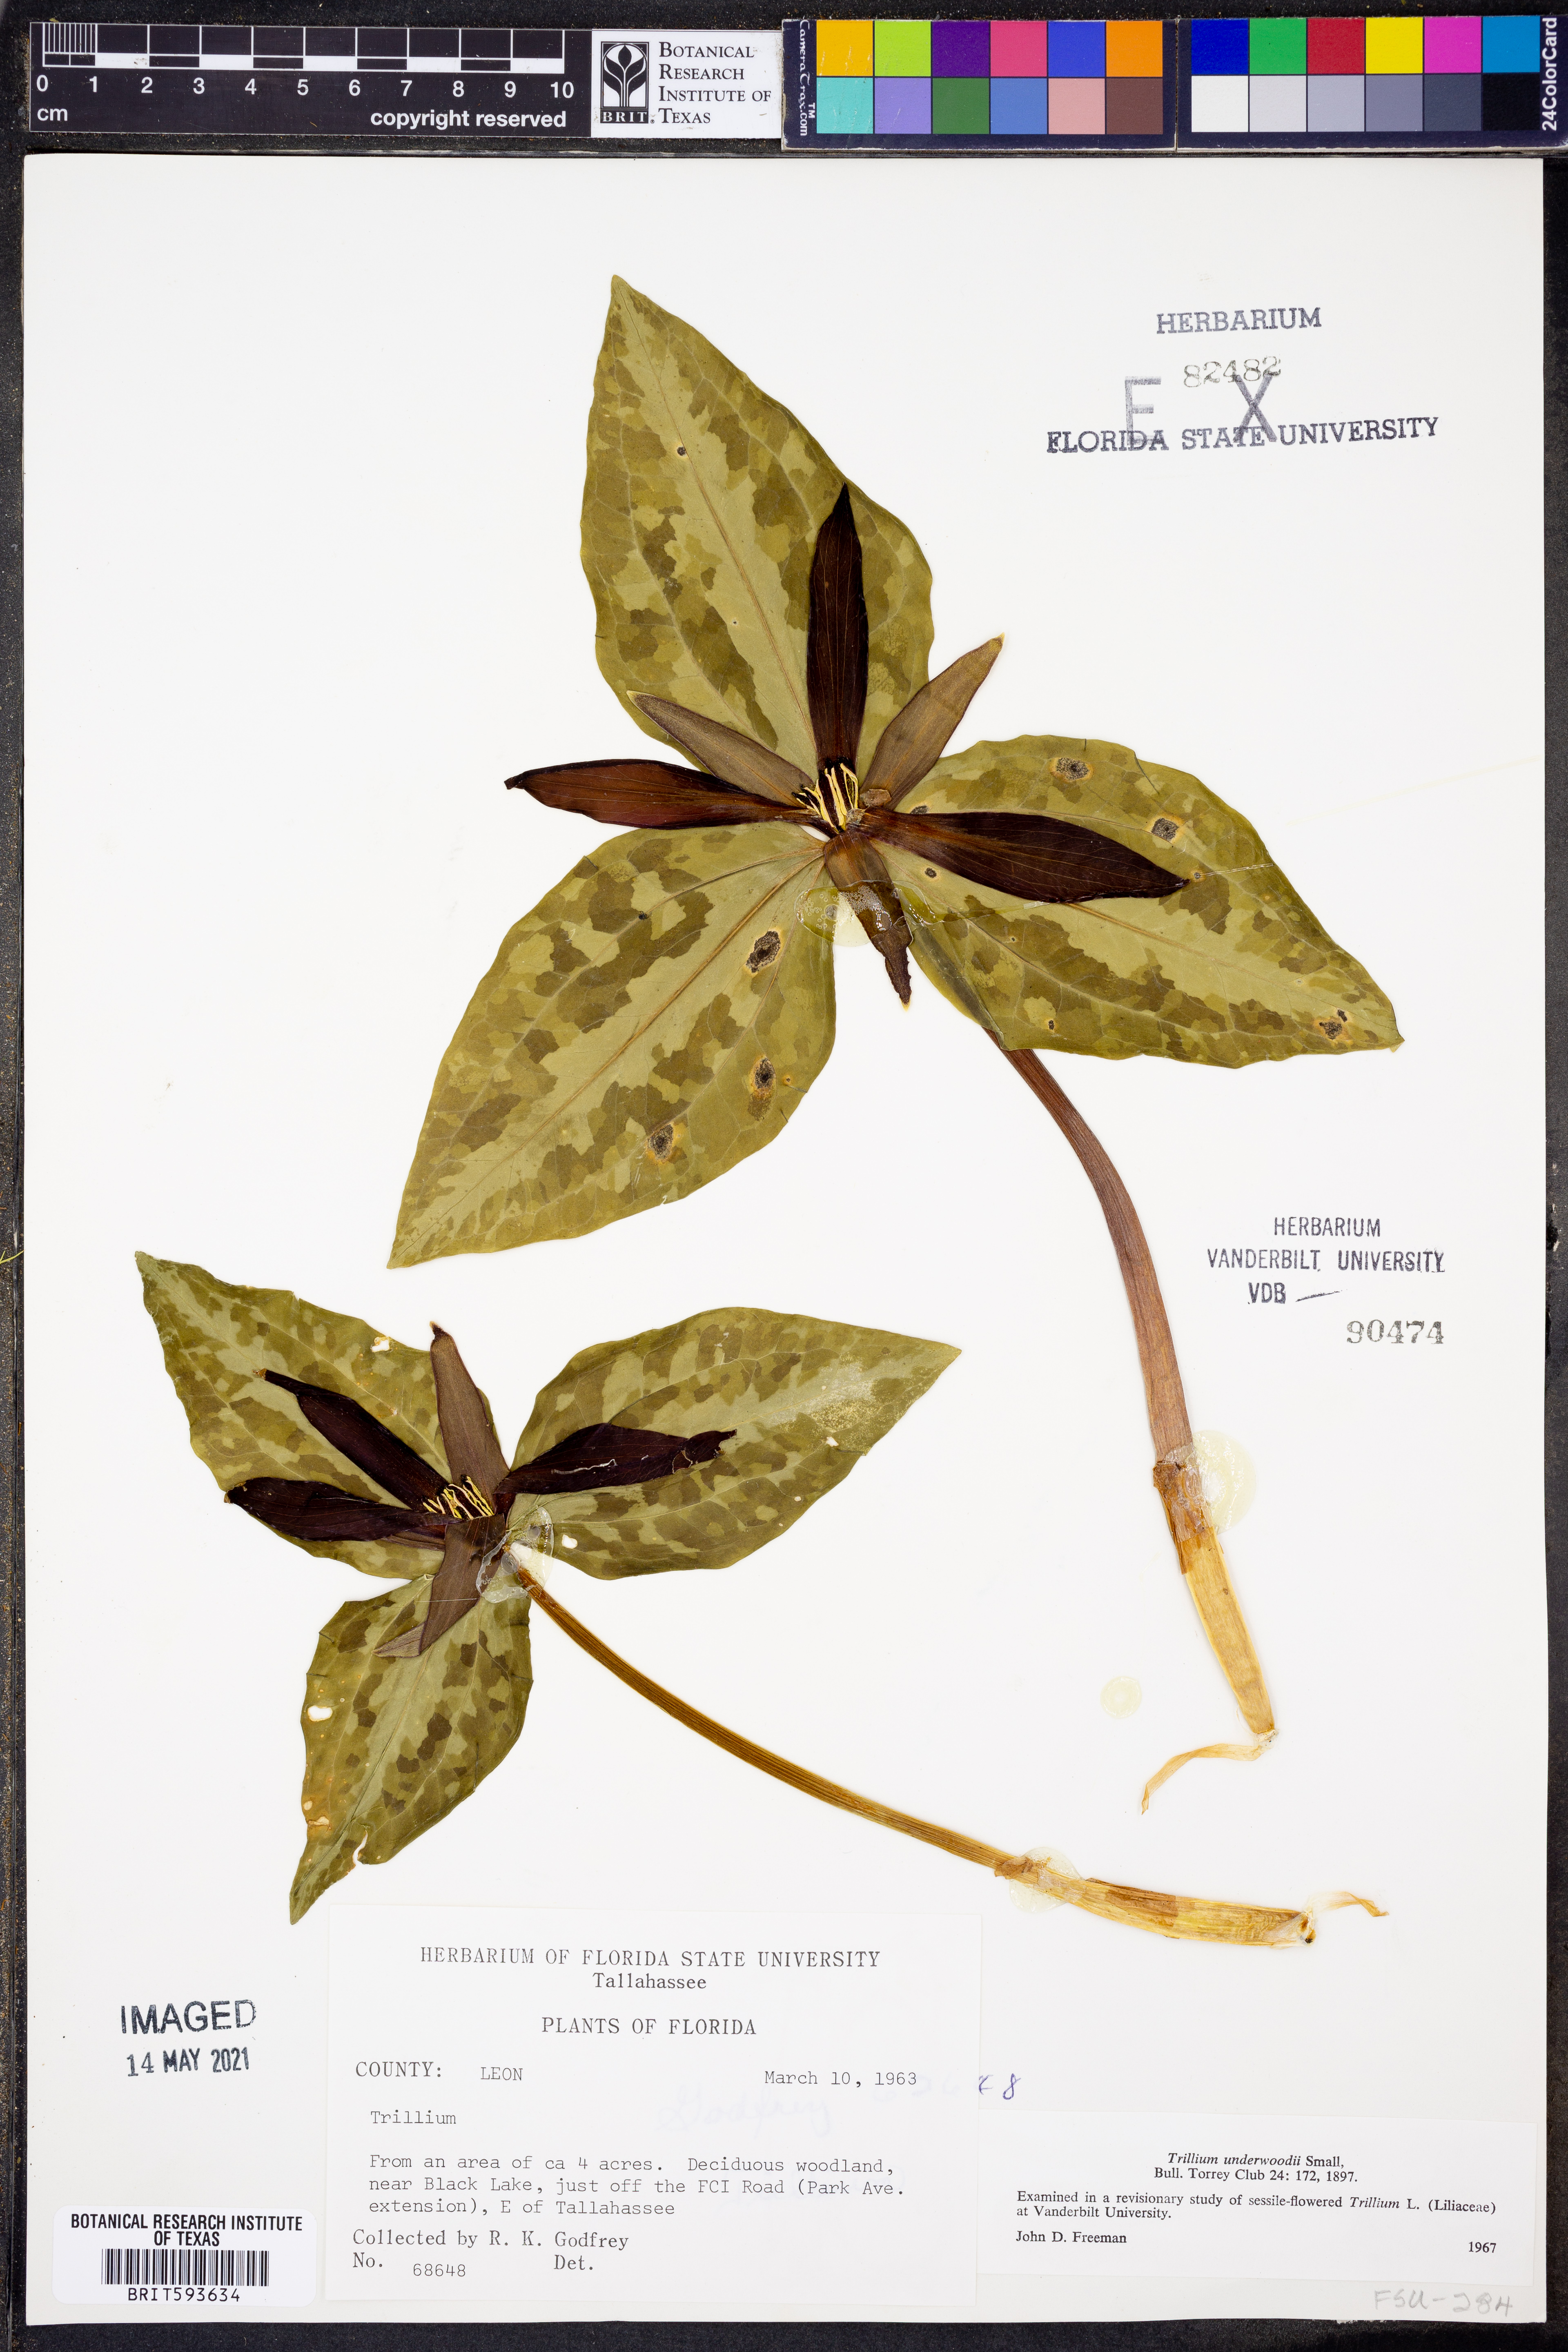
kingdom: Plantae
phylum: Tracheophyta
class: Liliopsida
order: Liliales
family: Melanthiaceae
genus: Trillium
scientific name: Trillium underwoodii
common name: Longbract wakerobin
